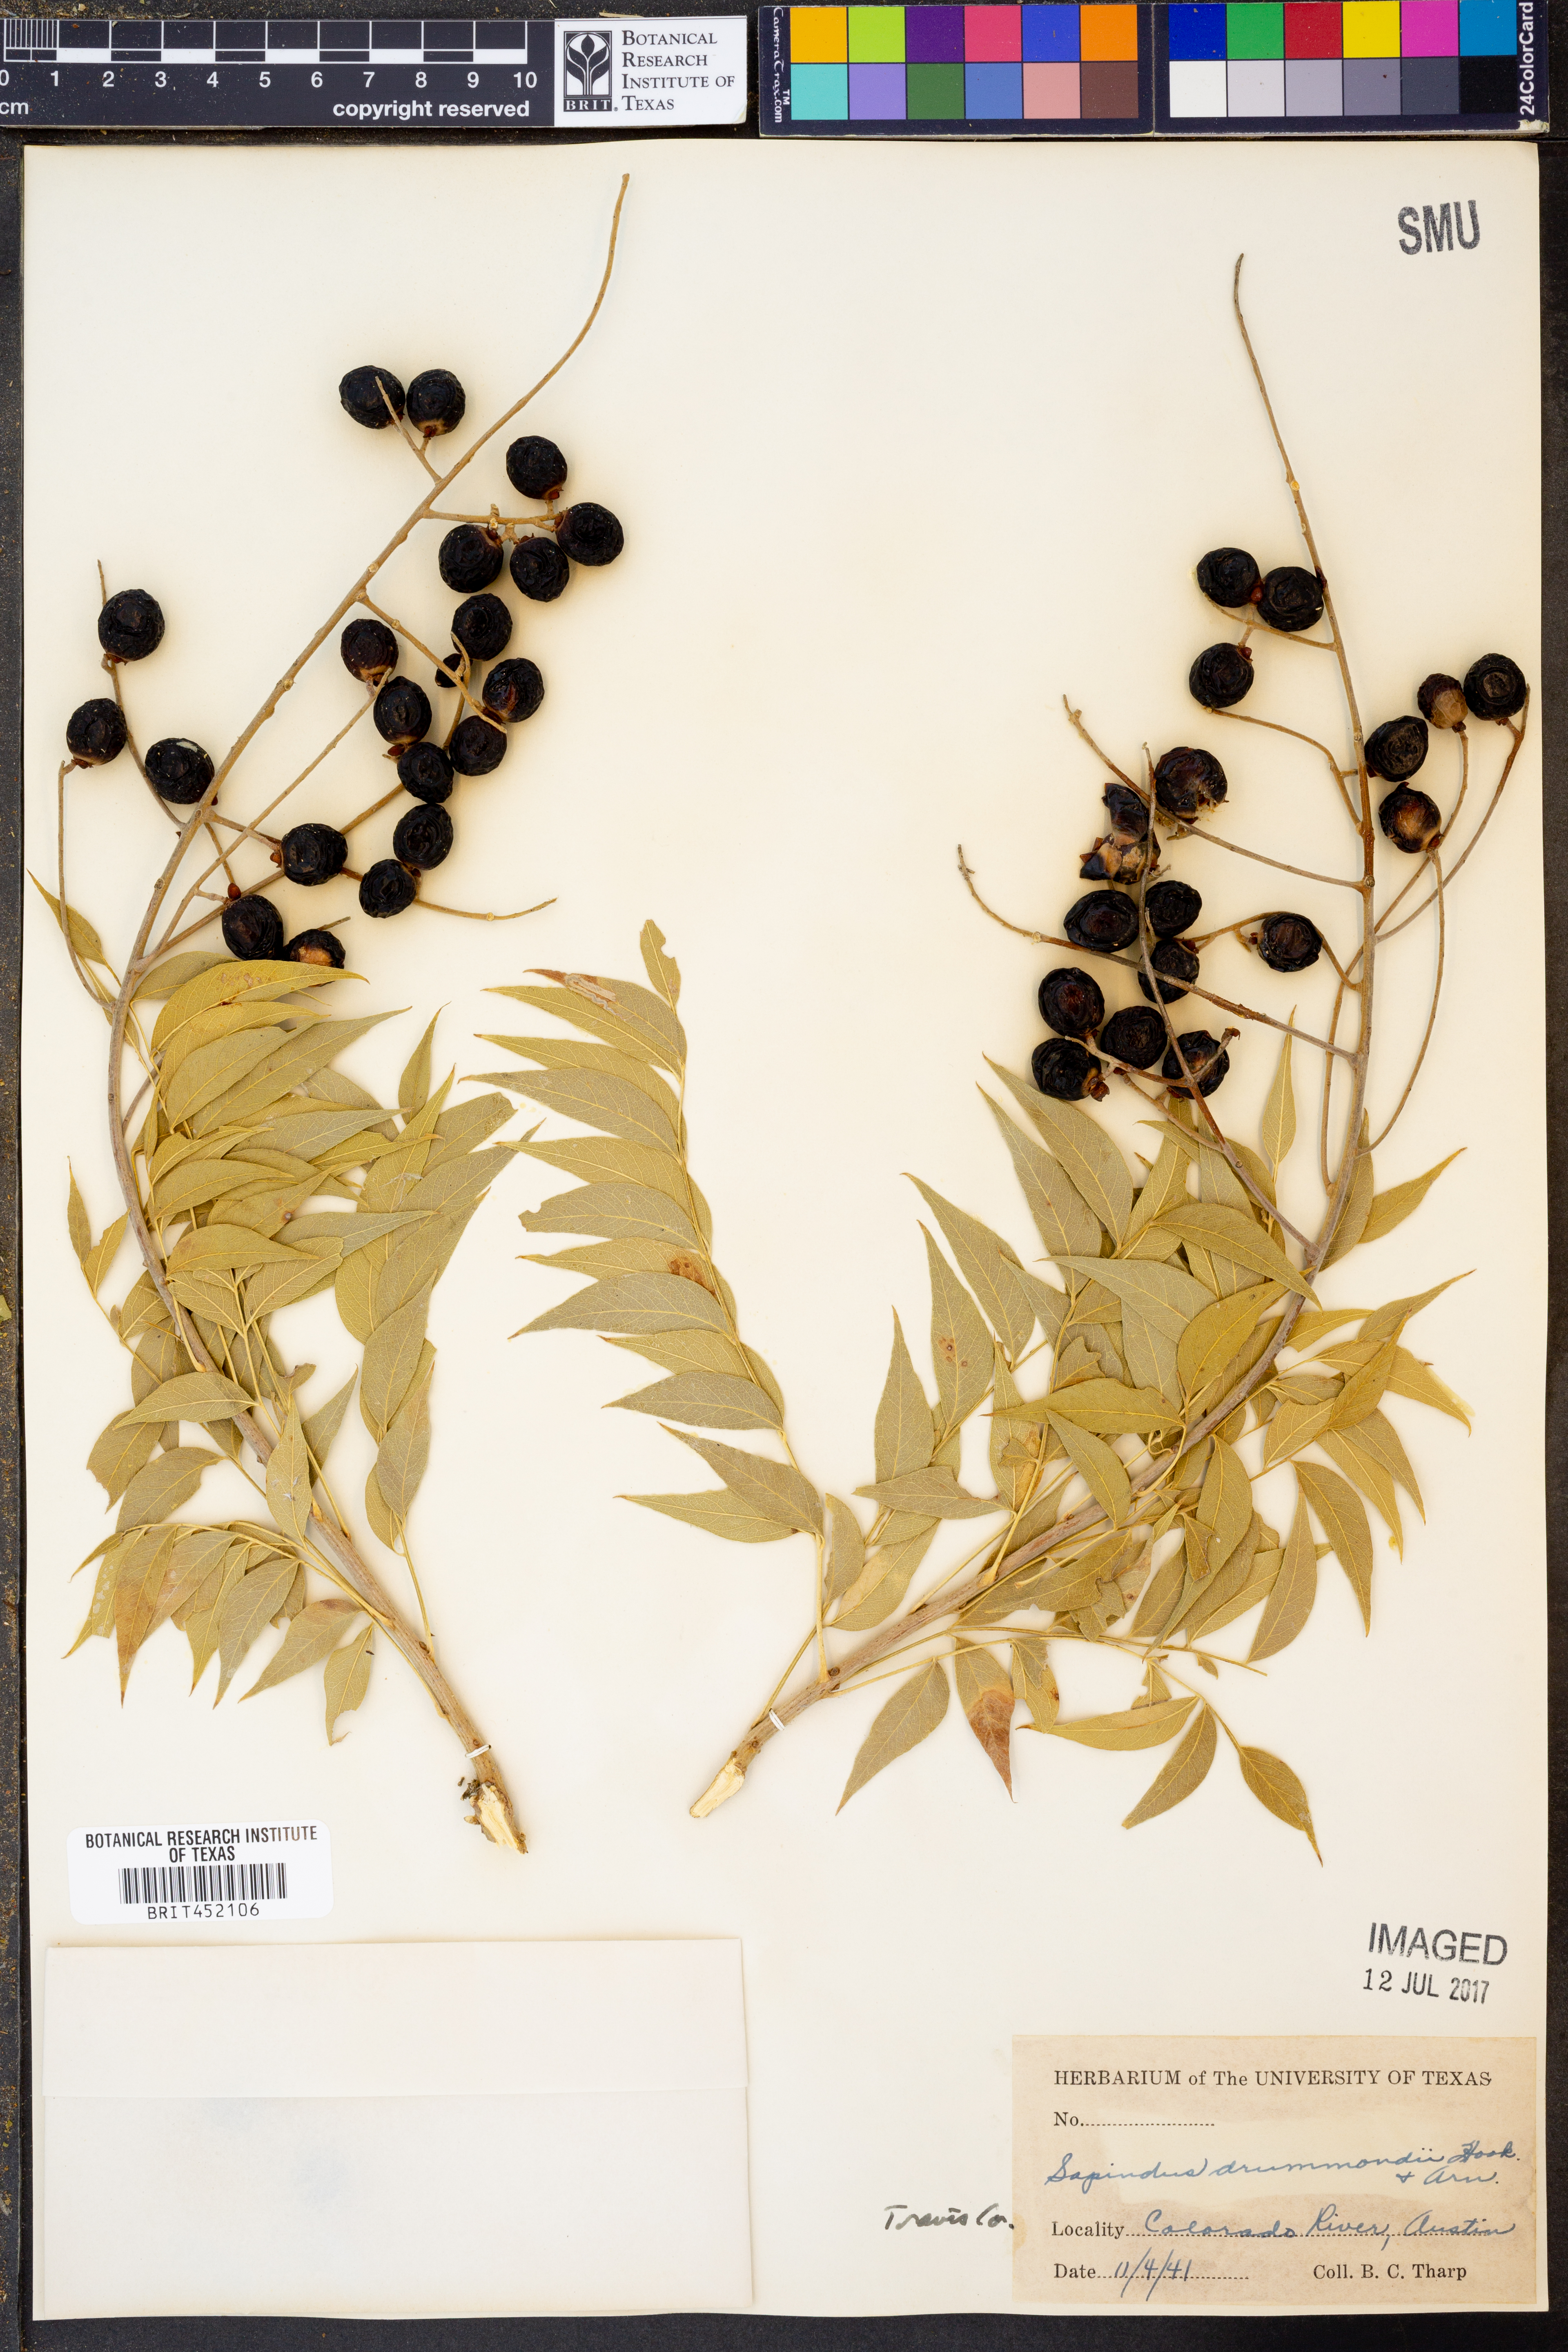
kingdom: Plantae
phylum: Tracheophyta
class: Magnoliopsida
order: Sapindales
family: Sapindaceae
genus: Sapindus
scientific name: Sapindus drummondii
